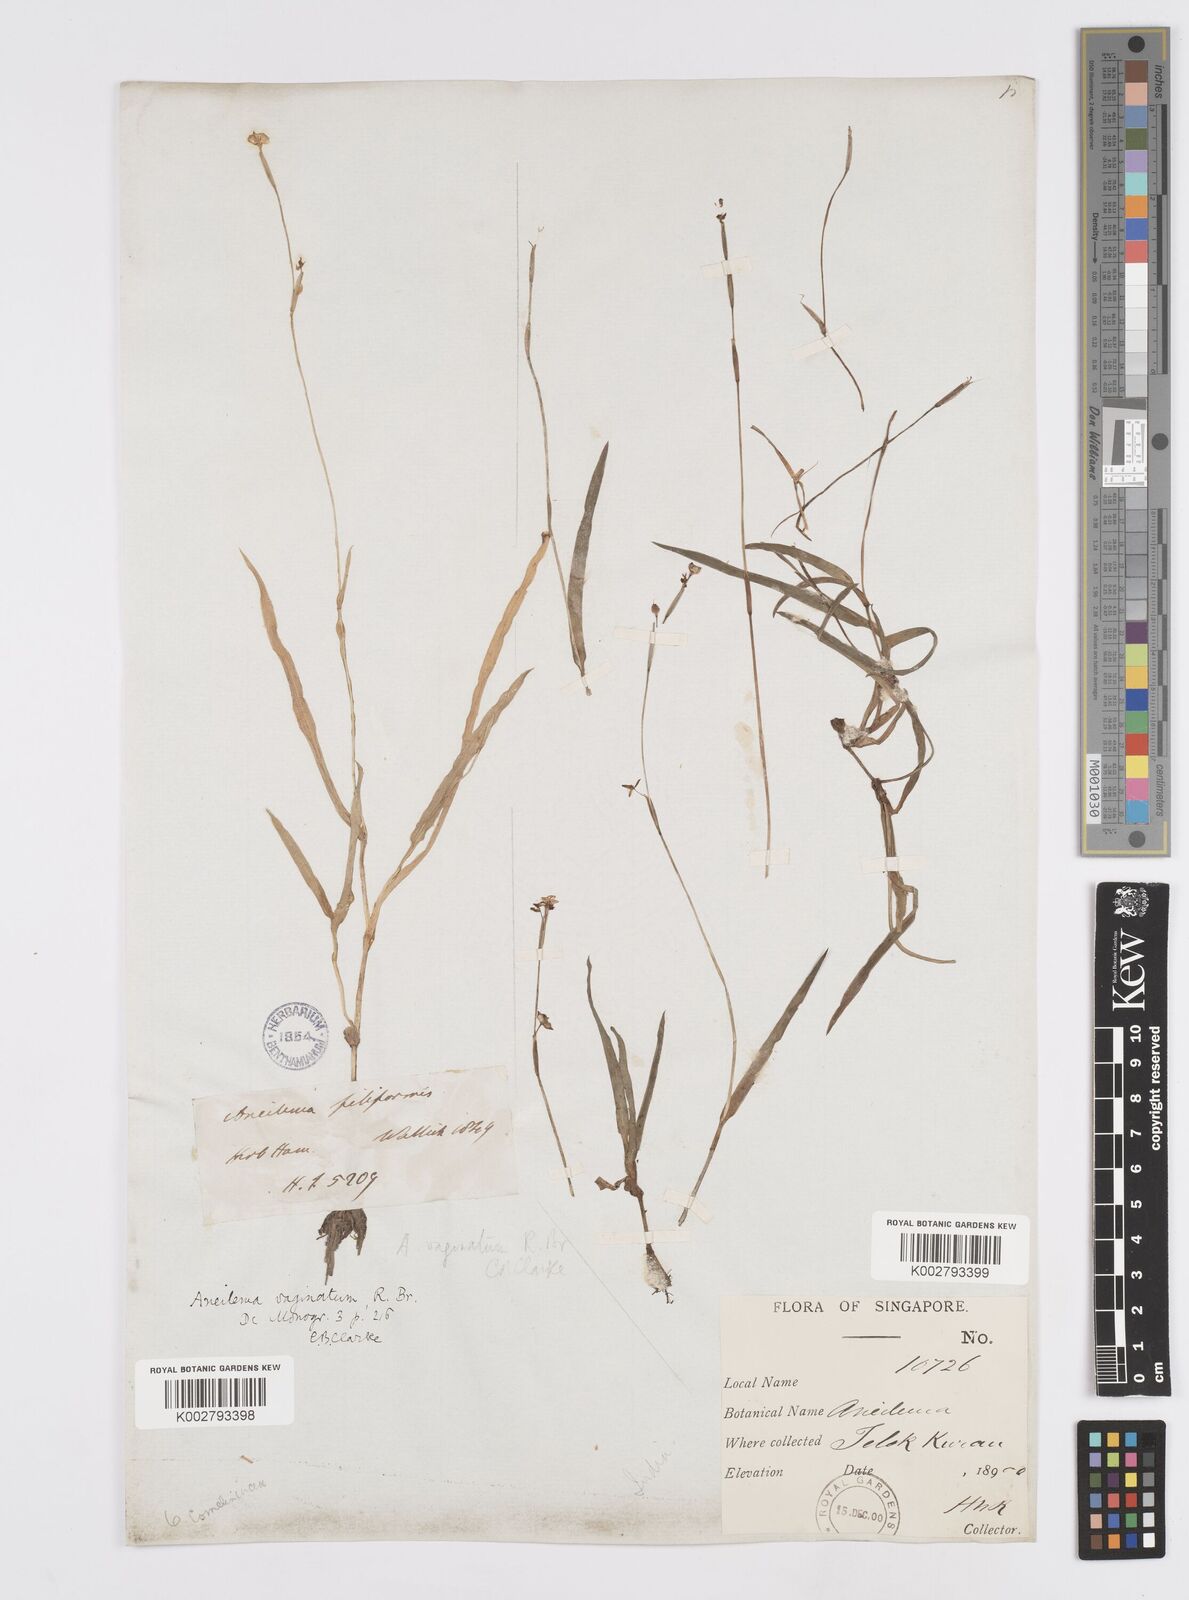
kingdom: Plantae
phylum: Tracheophyta
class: Liliopsida
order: Commelinales
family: Commelinaceae
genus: Murdannia
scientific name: Murdannia vaginata
